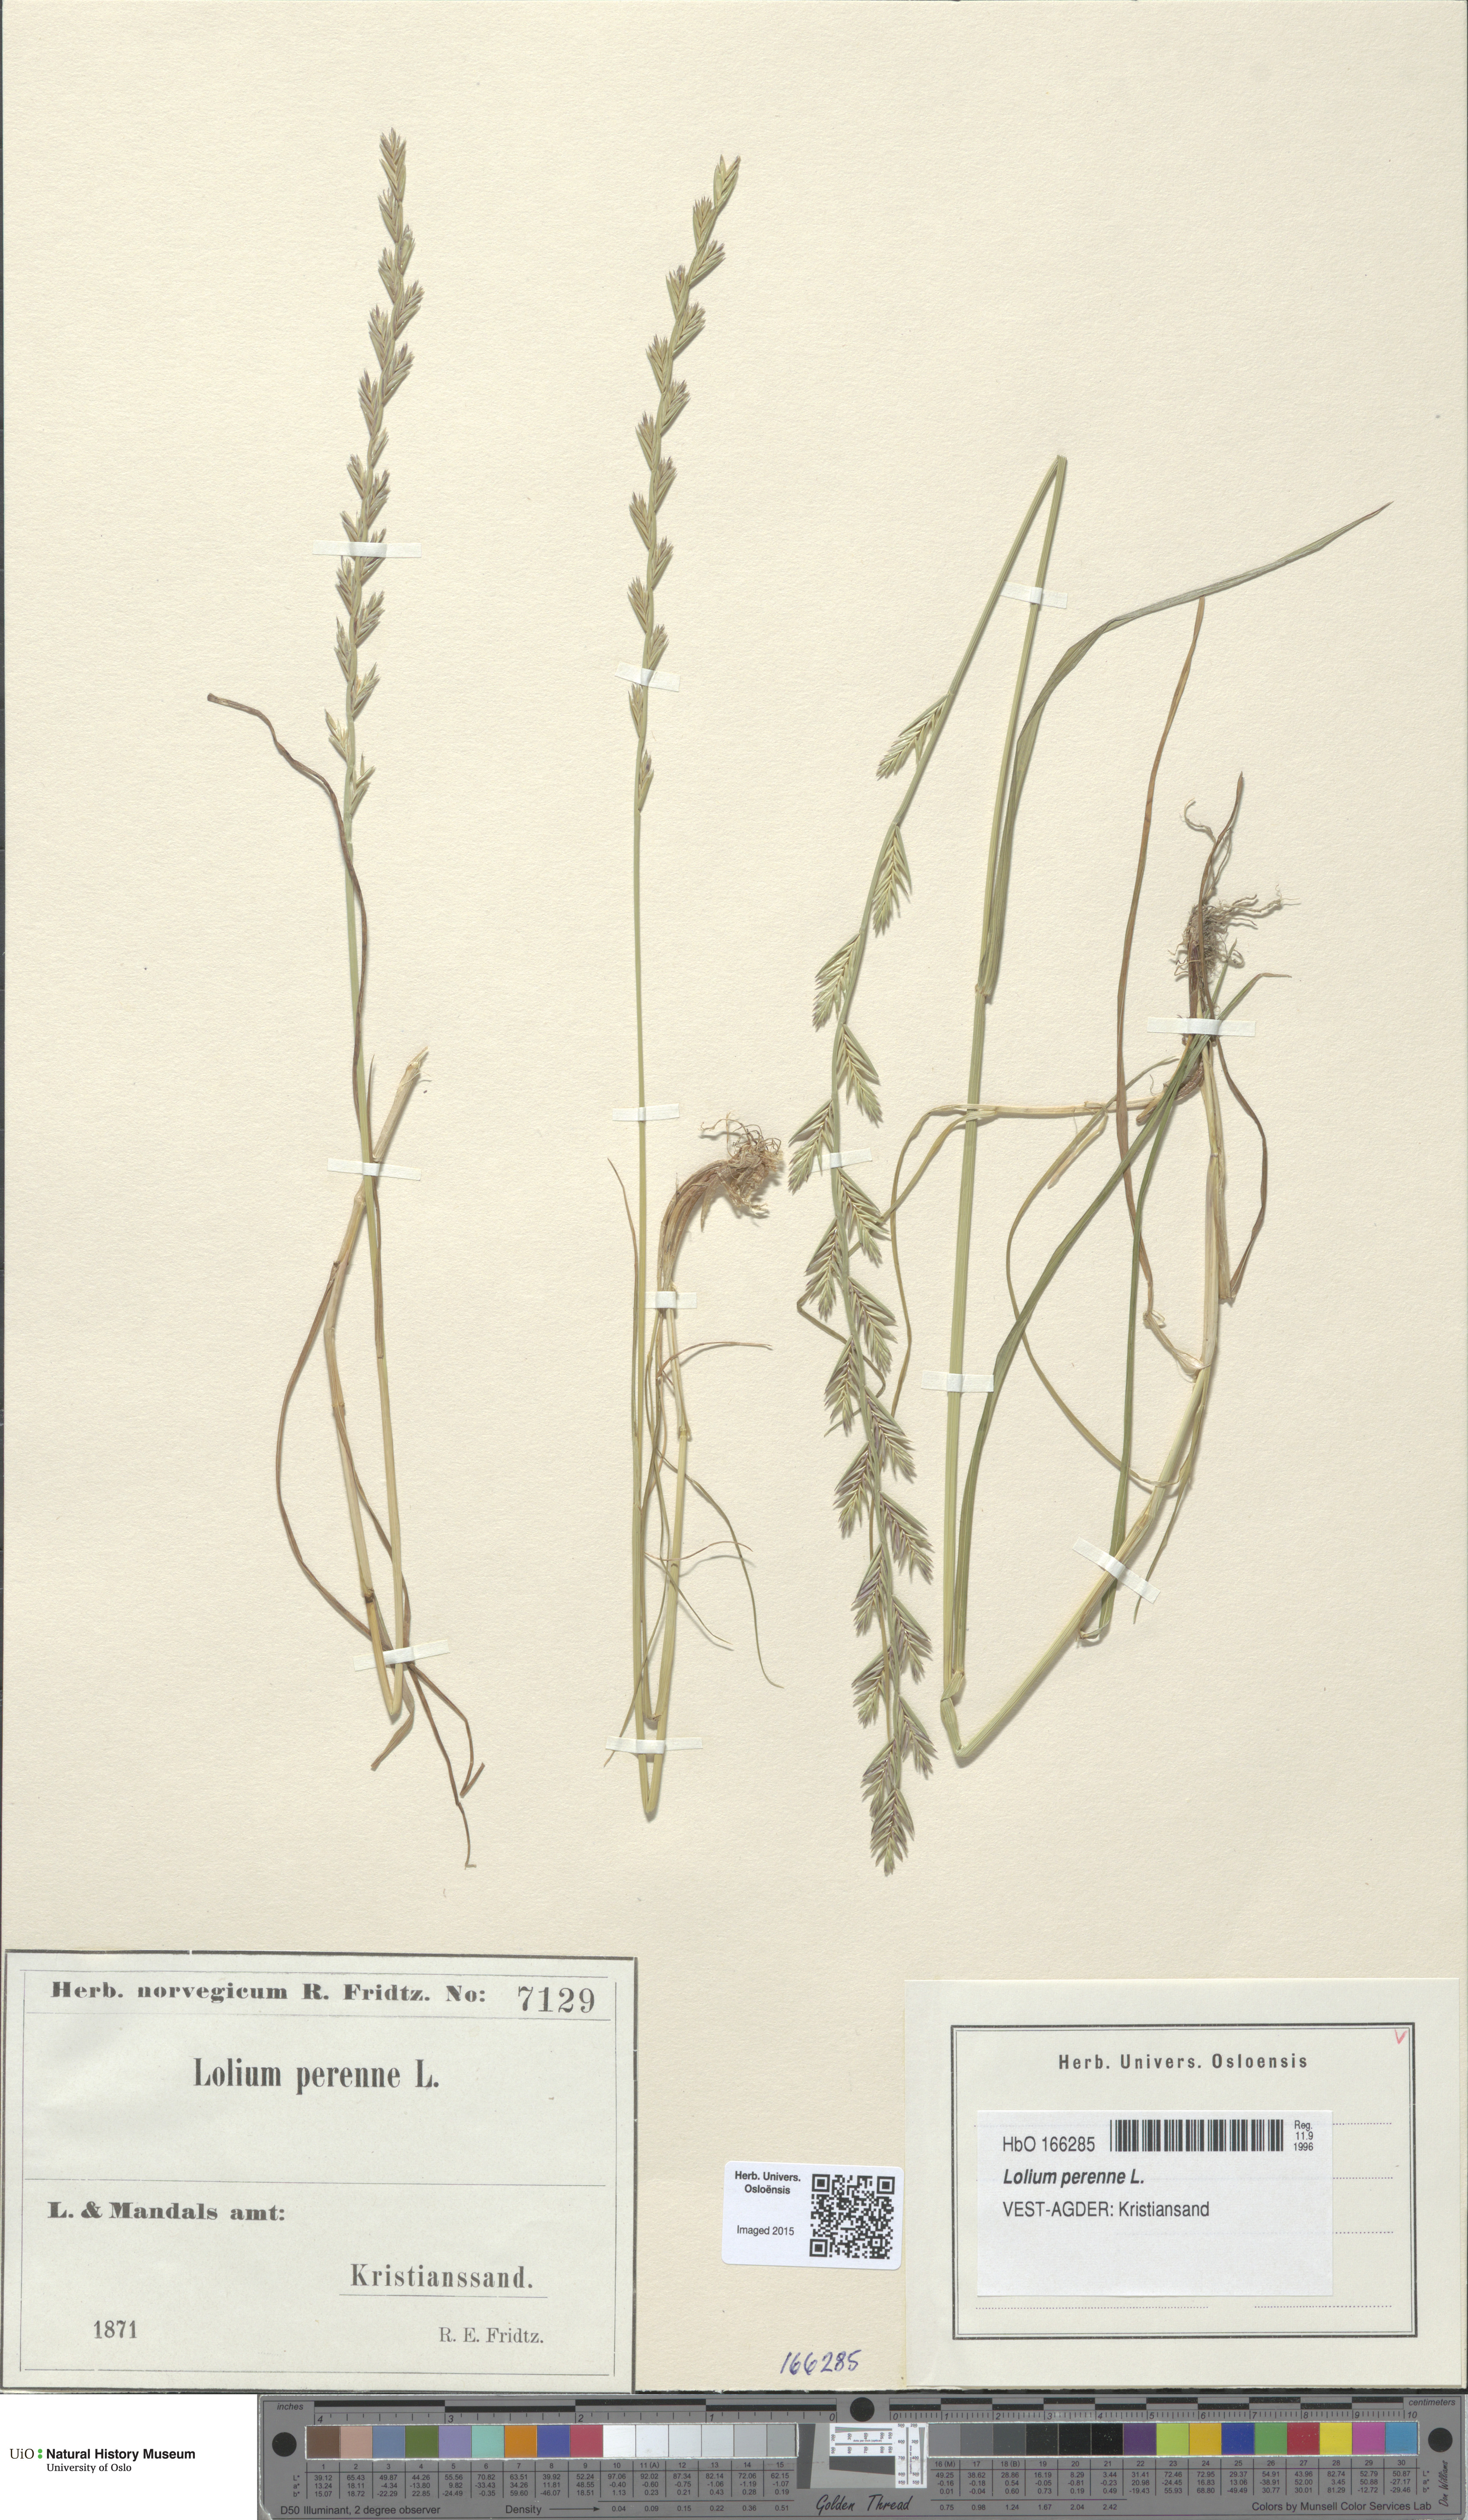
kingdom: Plantae
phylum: Tracheophyta
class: Liliopsida
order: Poales
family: Poaceae
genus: Lolium
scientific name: Lolium perenne
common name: Perennial ryegrass
